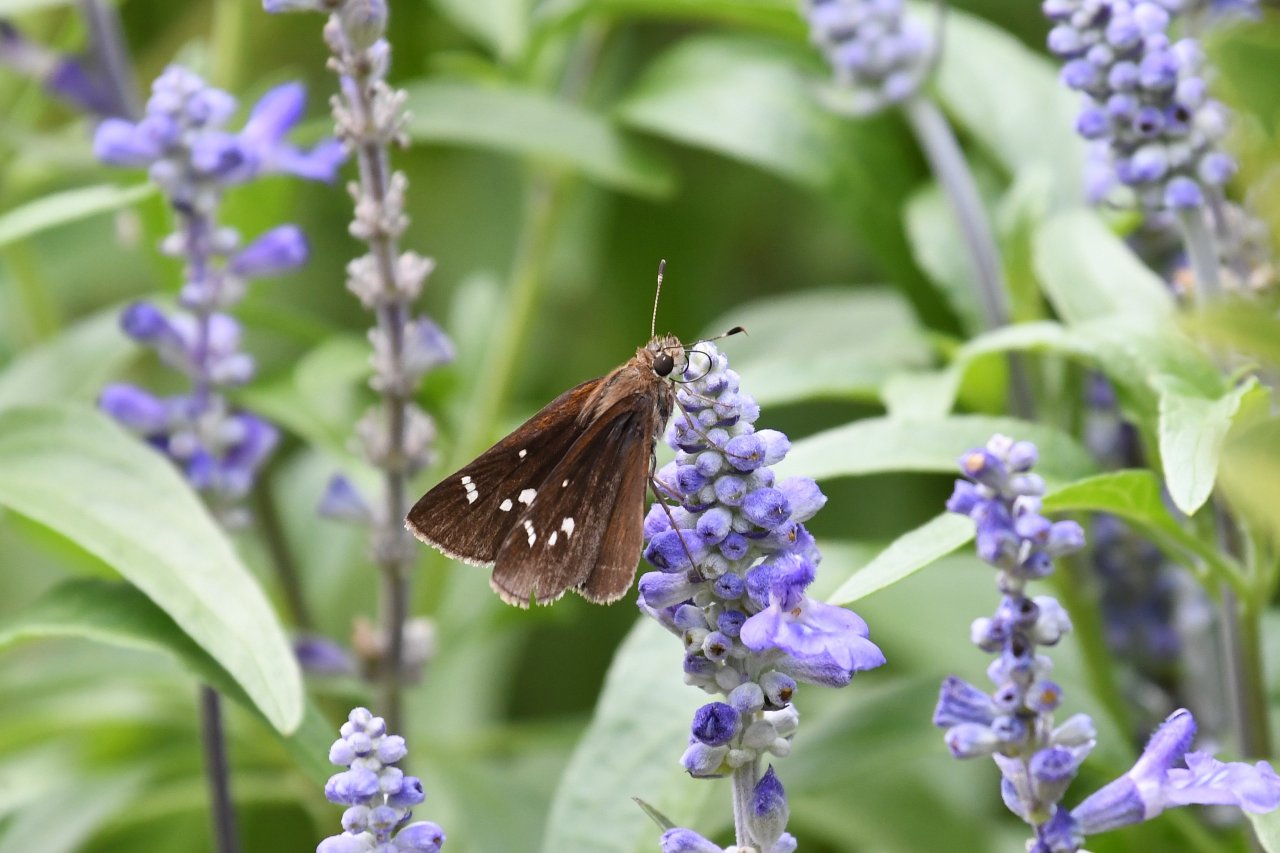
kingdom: Animalia
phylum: Arthropoda
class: Insecta
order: Lepidoptera
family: Hesperiidae
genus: Vernia
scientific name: Vernia verna
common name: Little Glassywing
